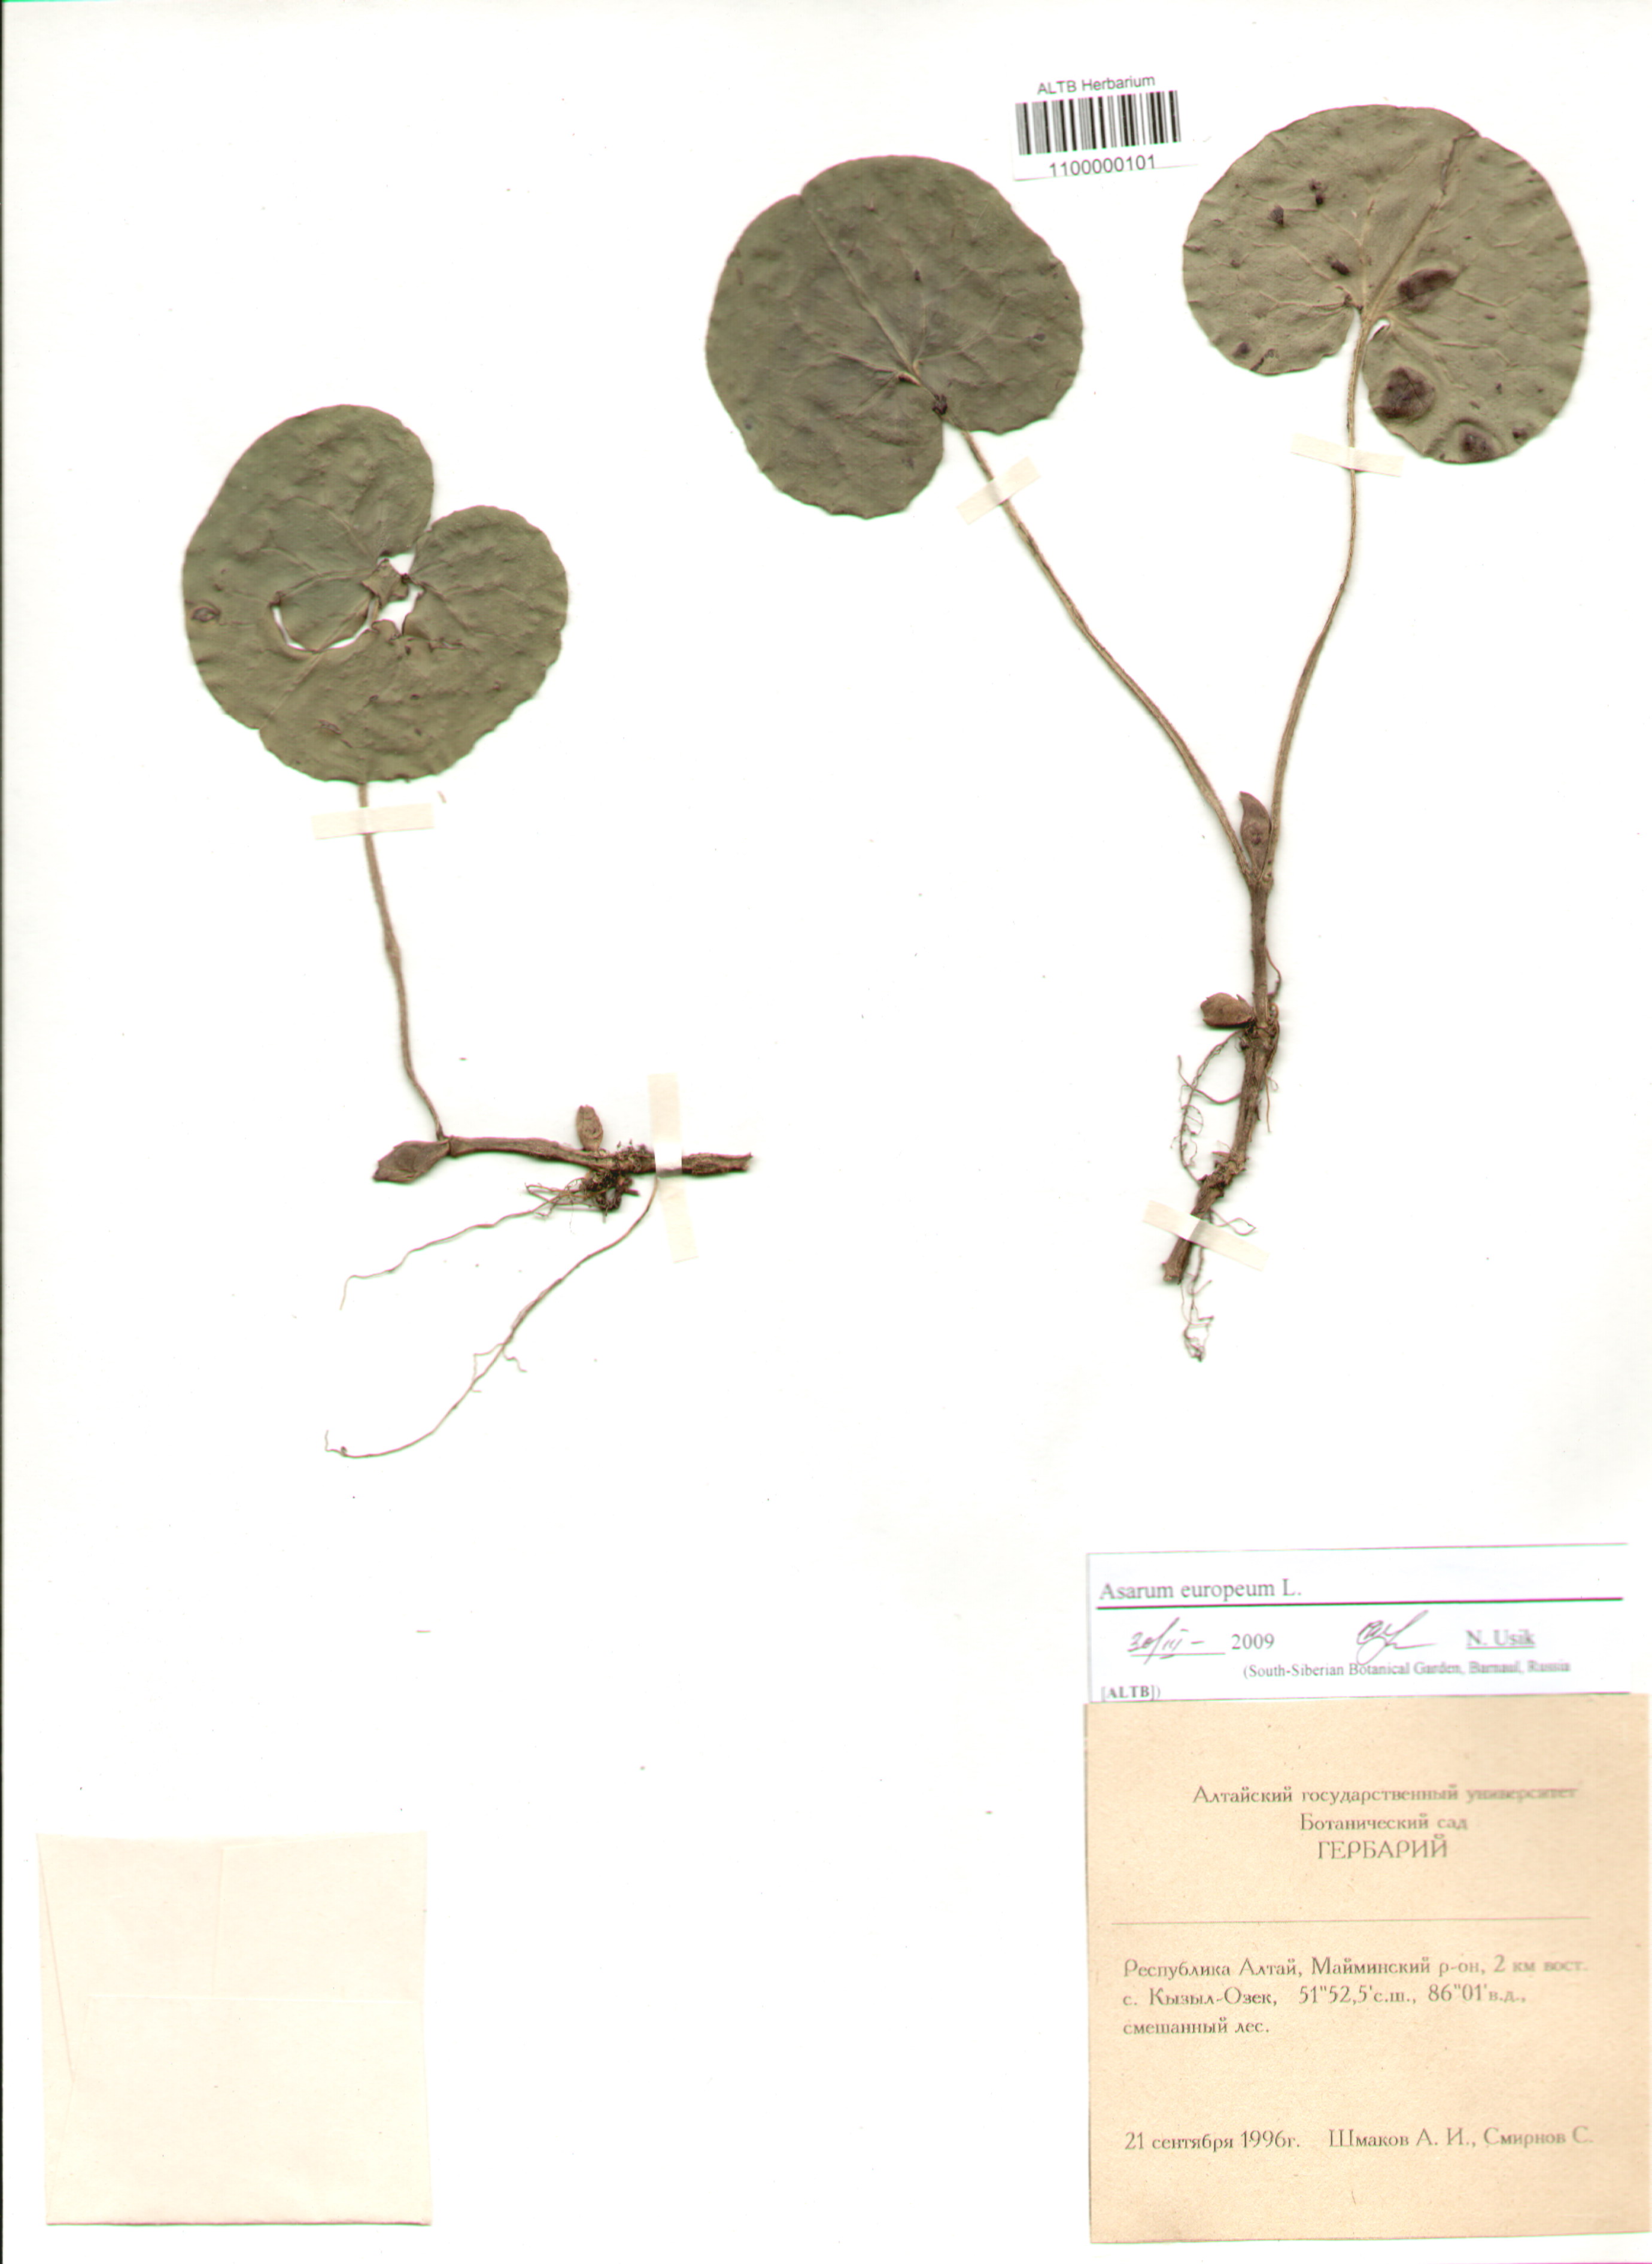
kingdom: Plantae
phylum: Tracheophyta
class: Magnoliopsida
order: Piperales
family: Aristolochiaceae
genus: Asarum
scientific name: Asarum europaeum
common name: Asarabacca
